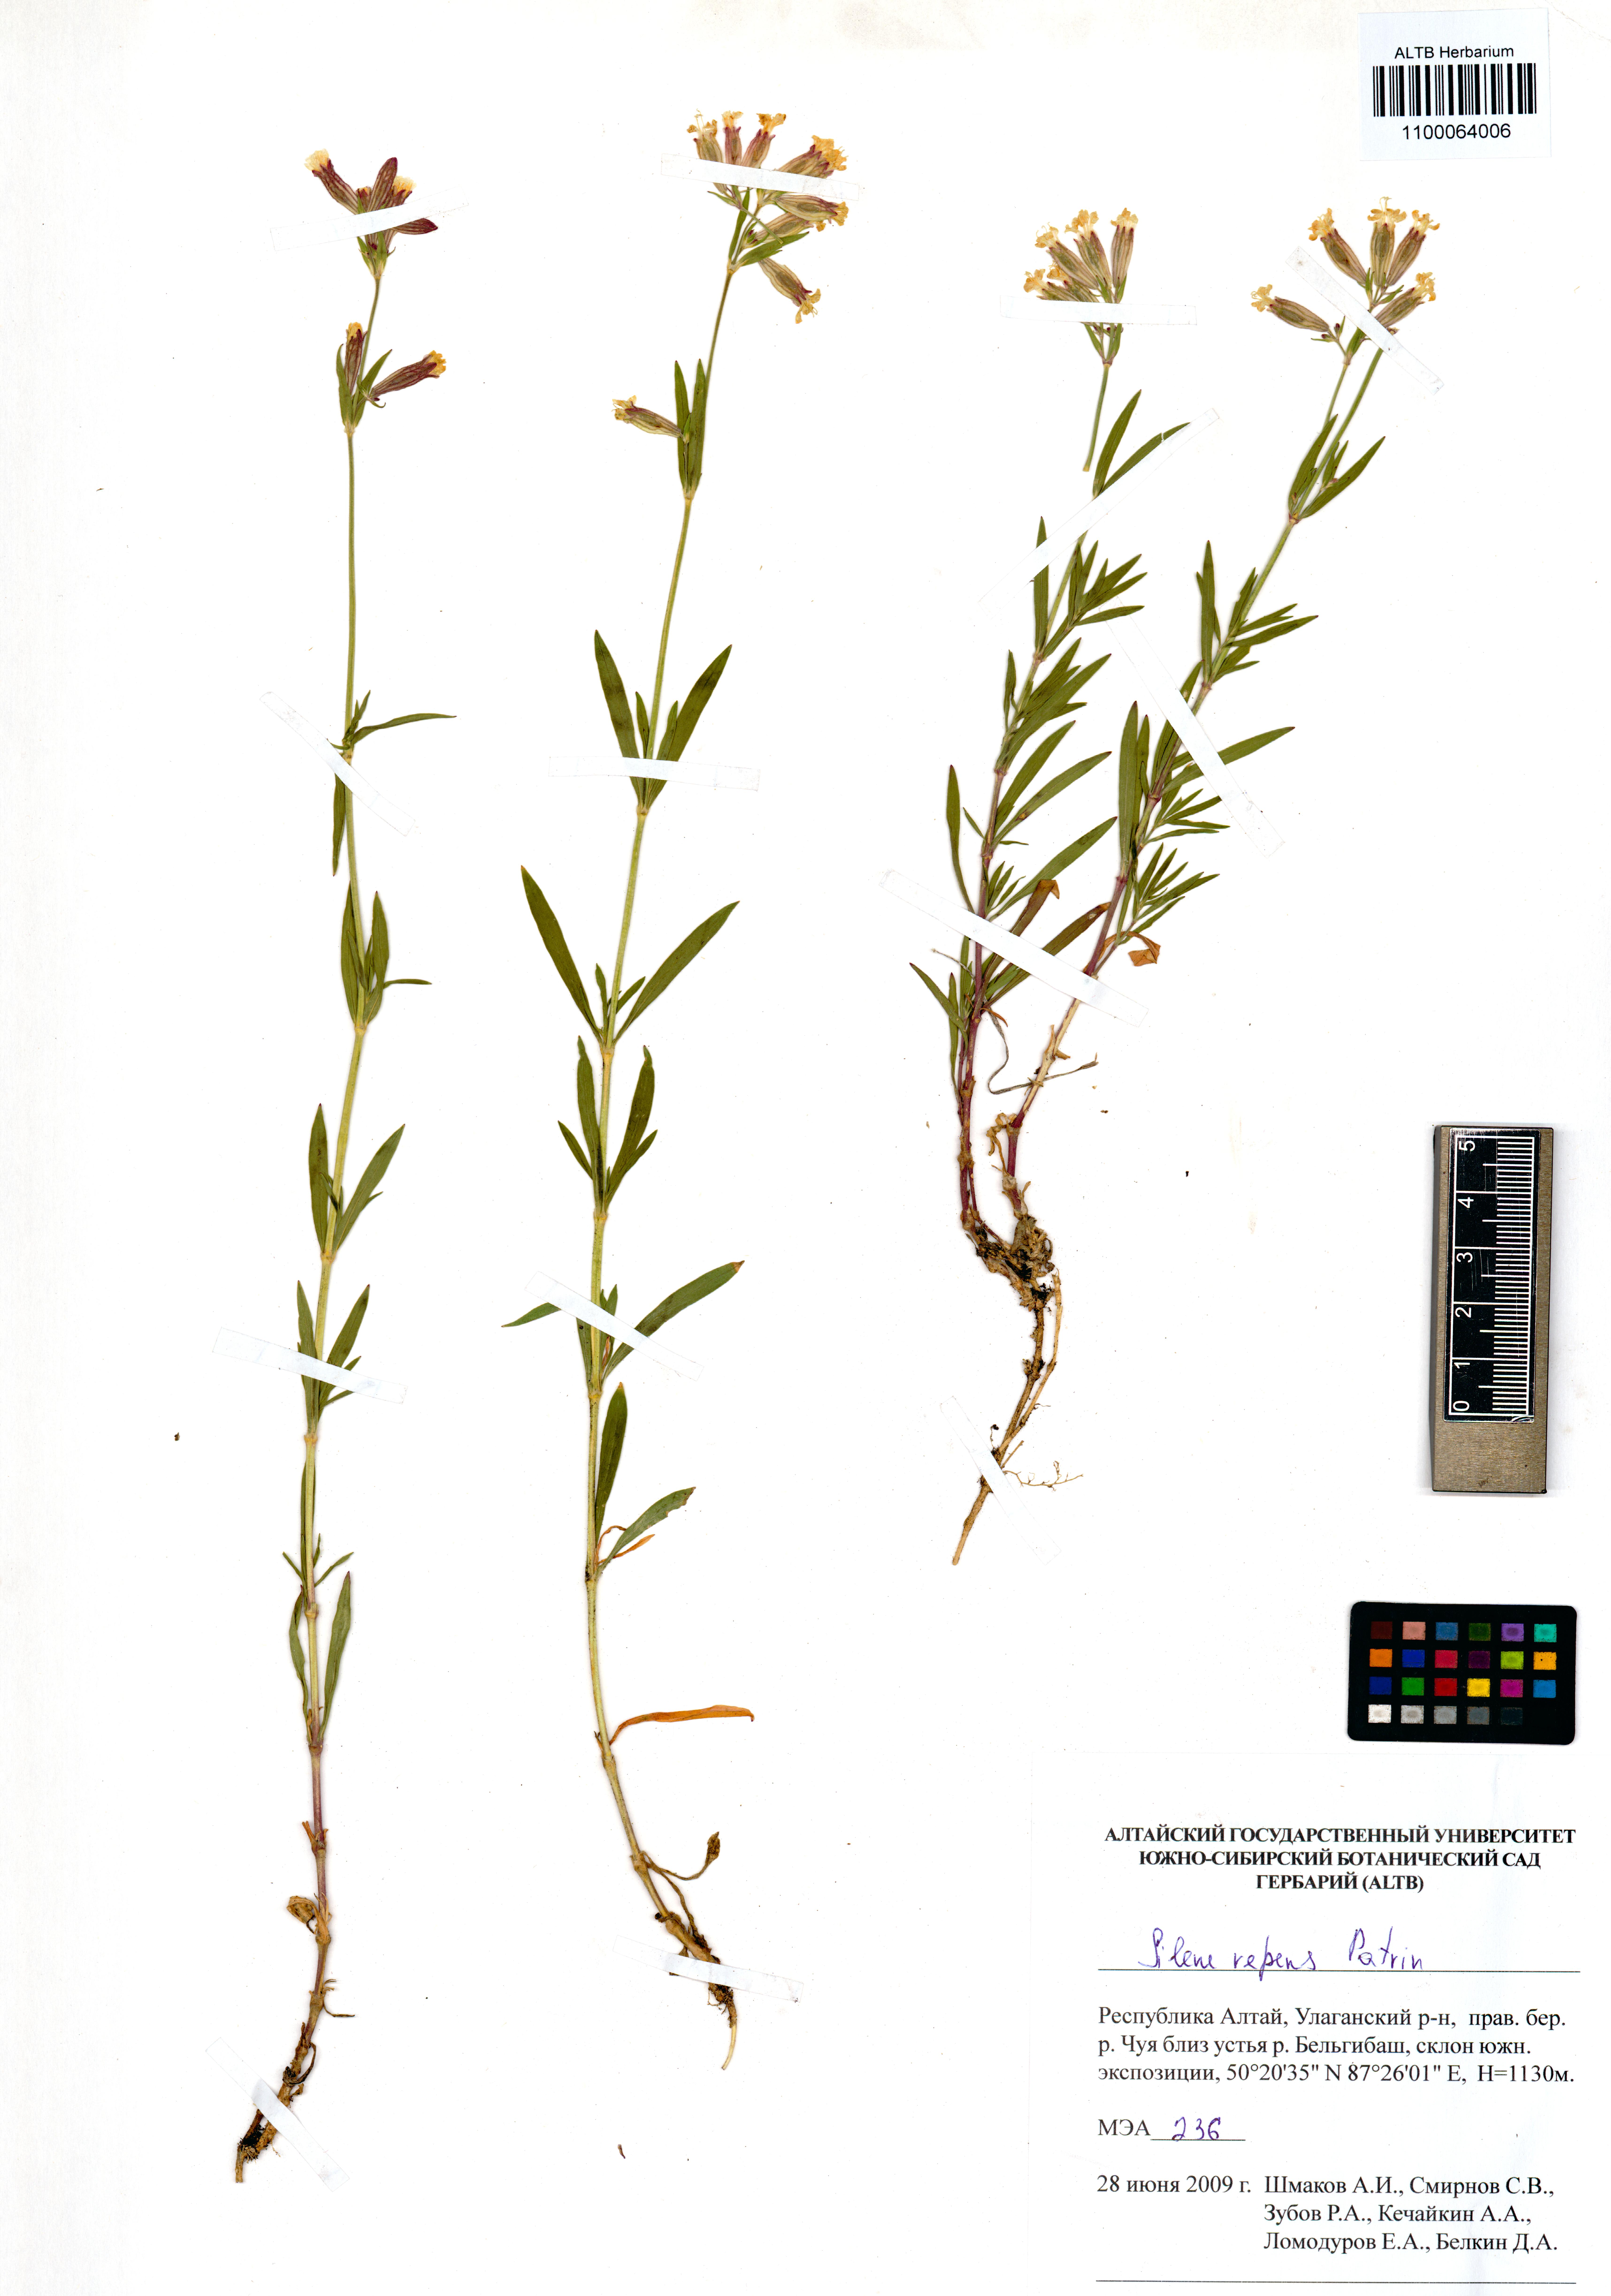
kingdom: Plantae
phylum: Tracheophyta
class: Magnoliopsida
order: Caryophyllales
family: Caryophyllaceae
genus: Silene
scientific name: Silene repens
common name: Pink campion
